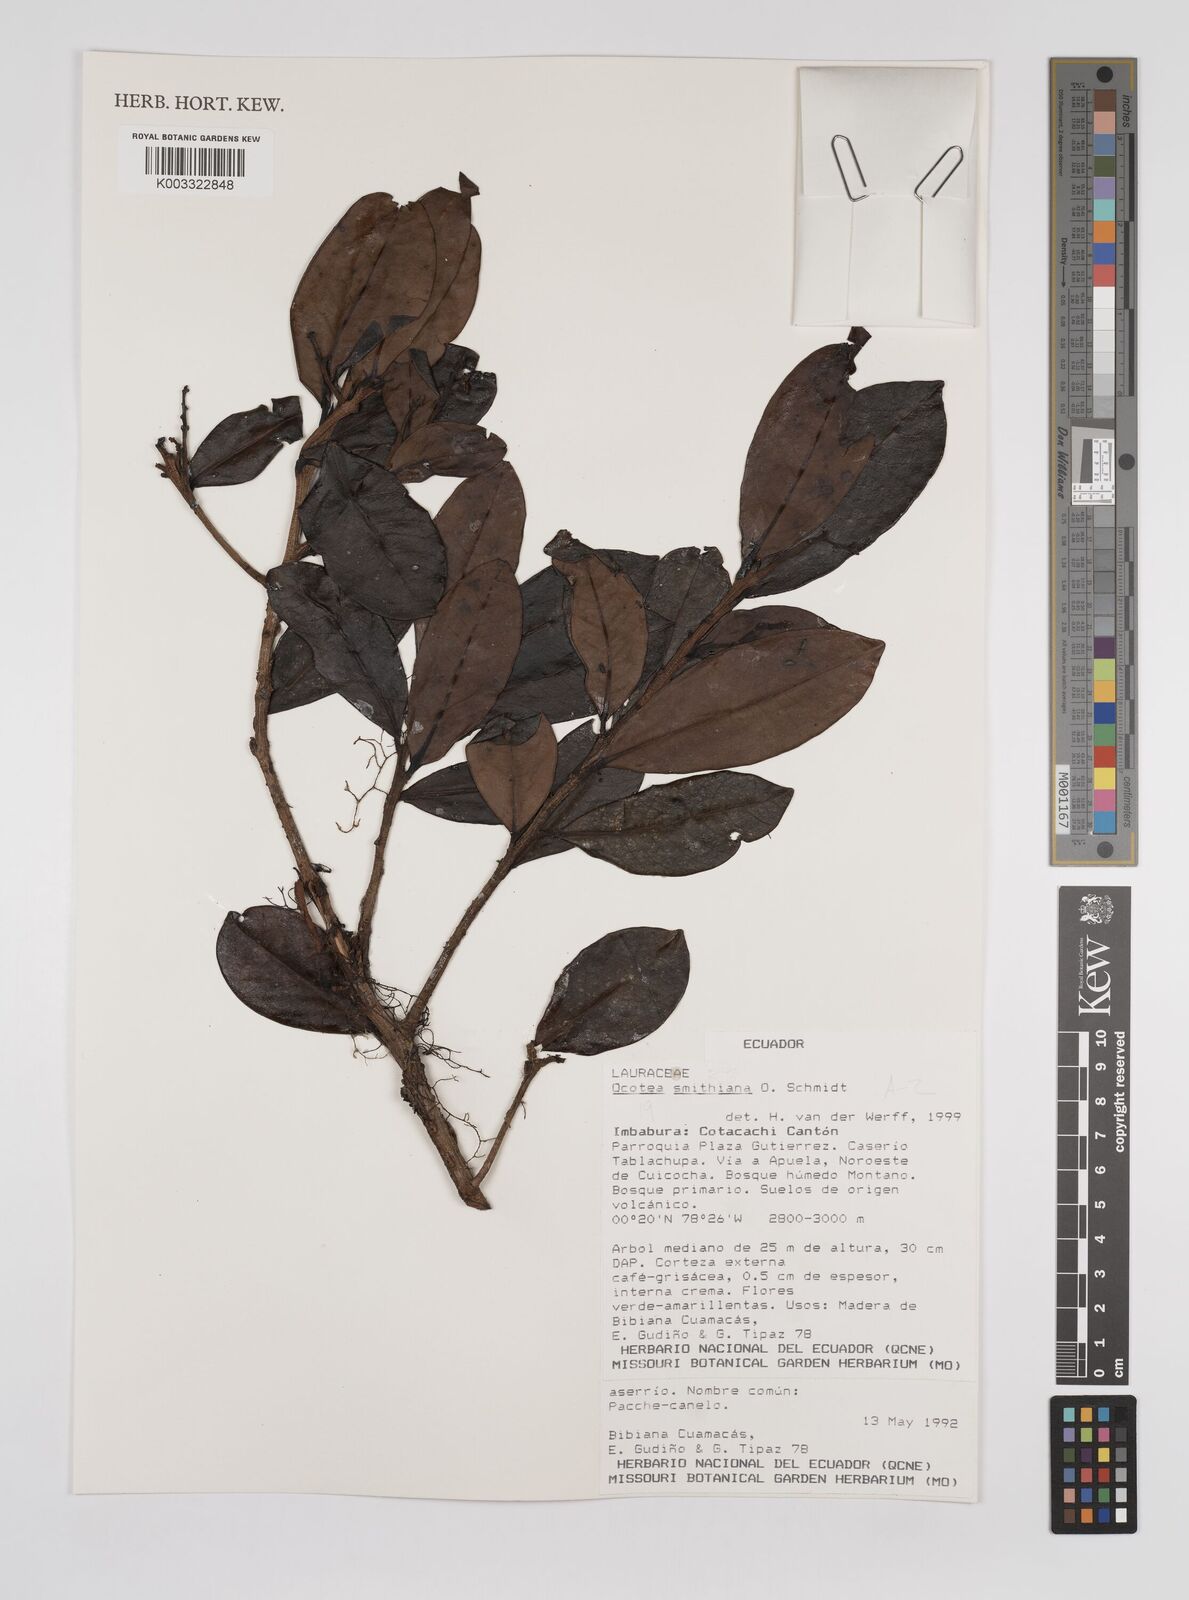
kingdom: Plantae
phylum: Tracheophyta
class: Magnoliopsida
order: Laurales
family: Lauraceae
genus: Ocotea
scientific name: Ocotea stenoneura
